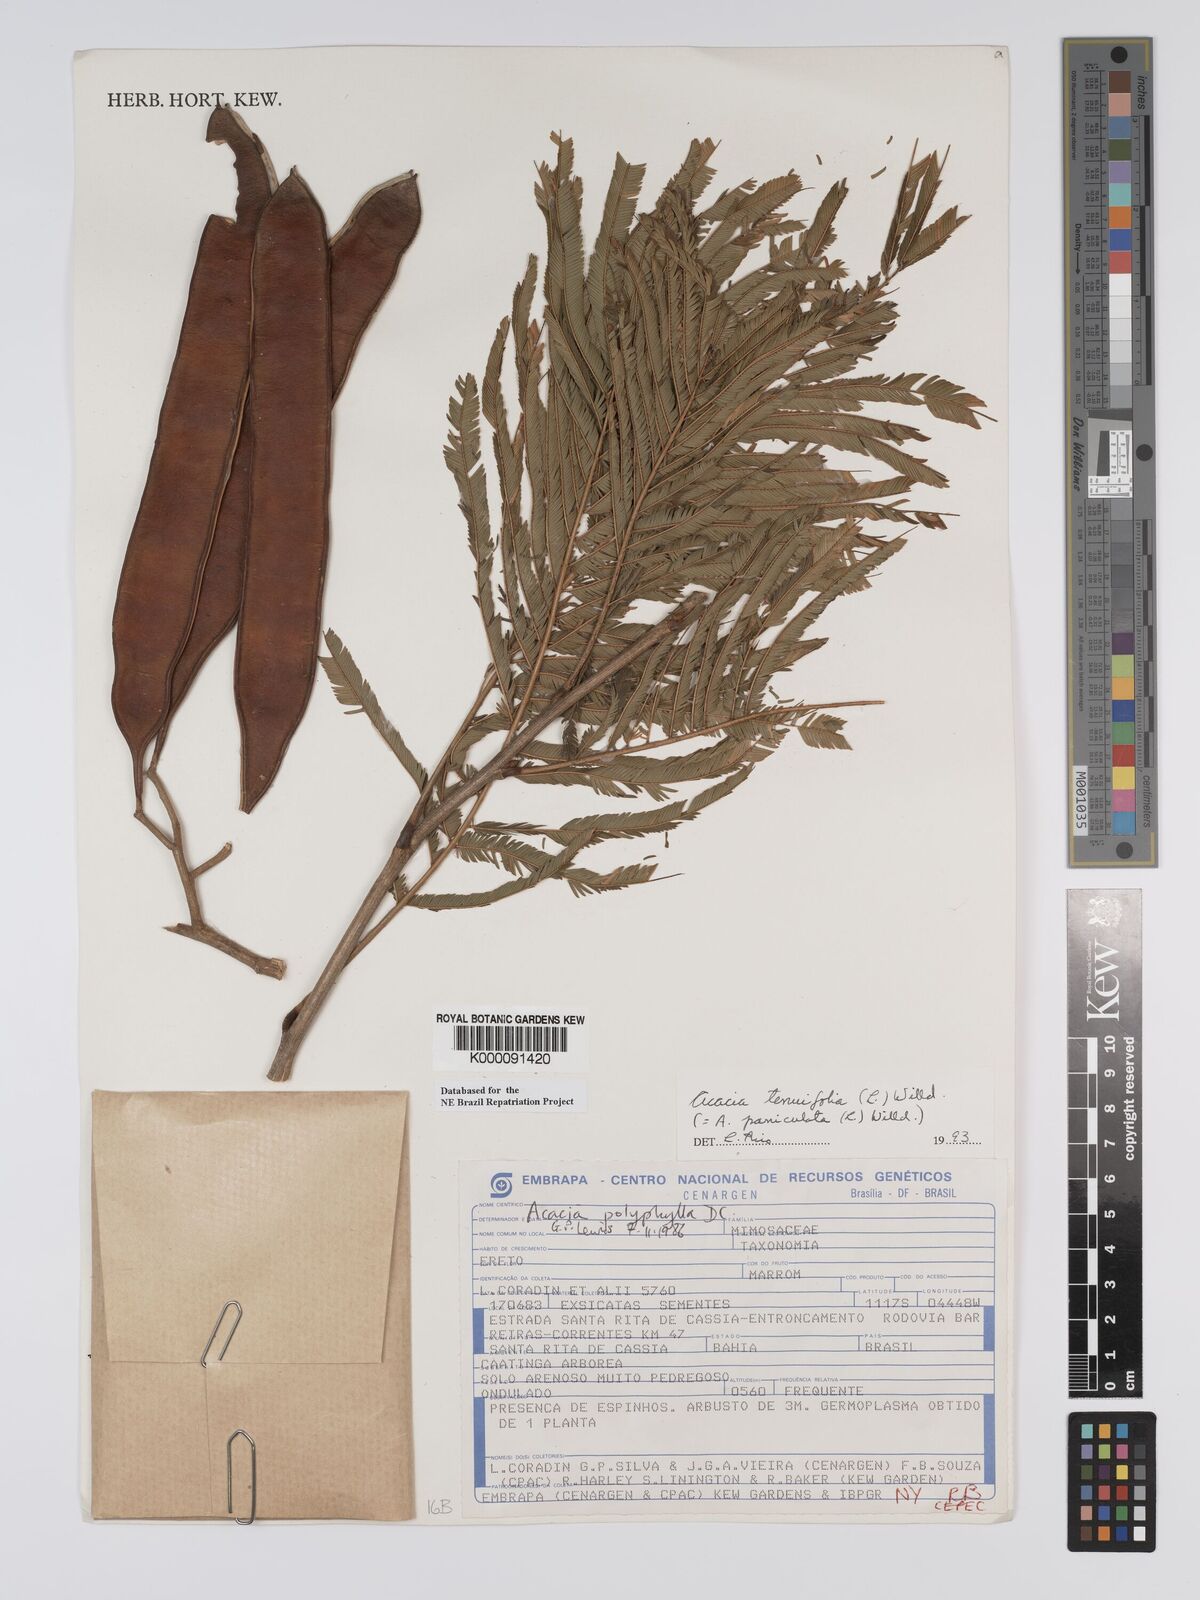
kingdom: Plantae
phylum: Tracheophyta
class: Magnoliopsida
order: Fabales
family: Fabaceae
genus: Senegalia
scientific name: Senegalia polyphylla
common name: White-tamarind
